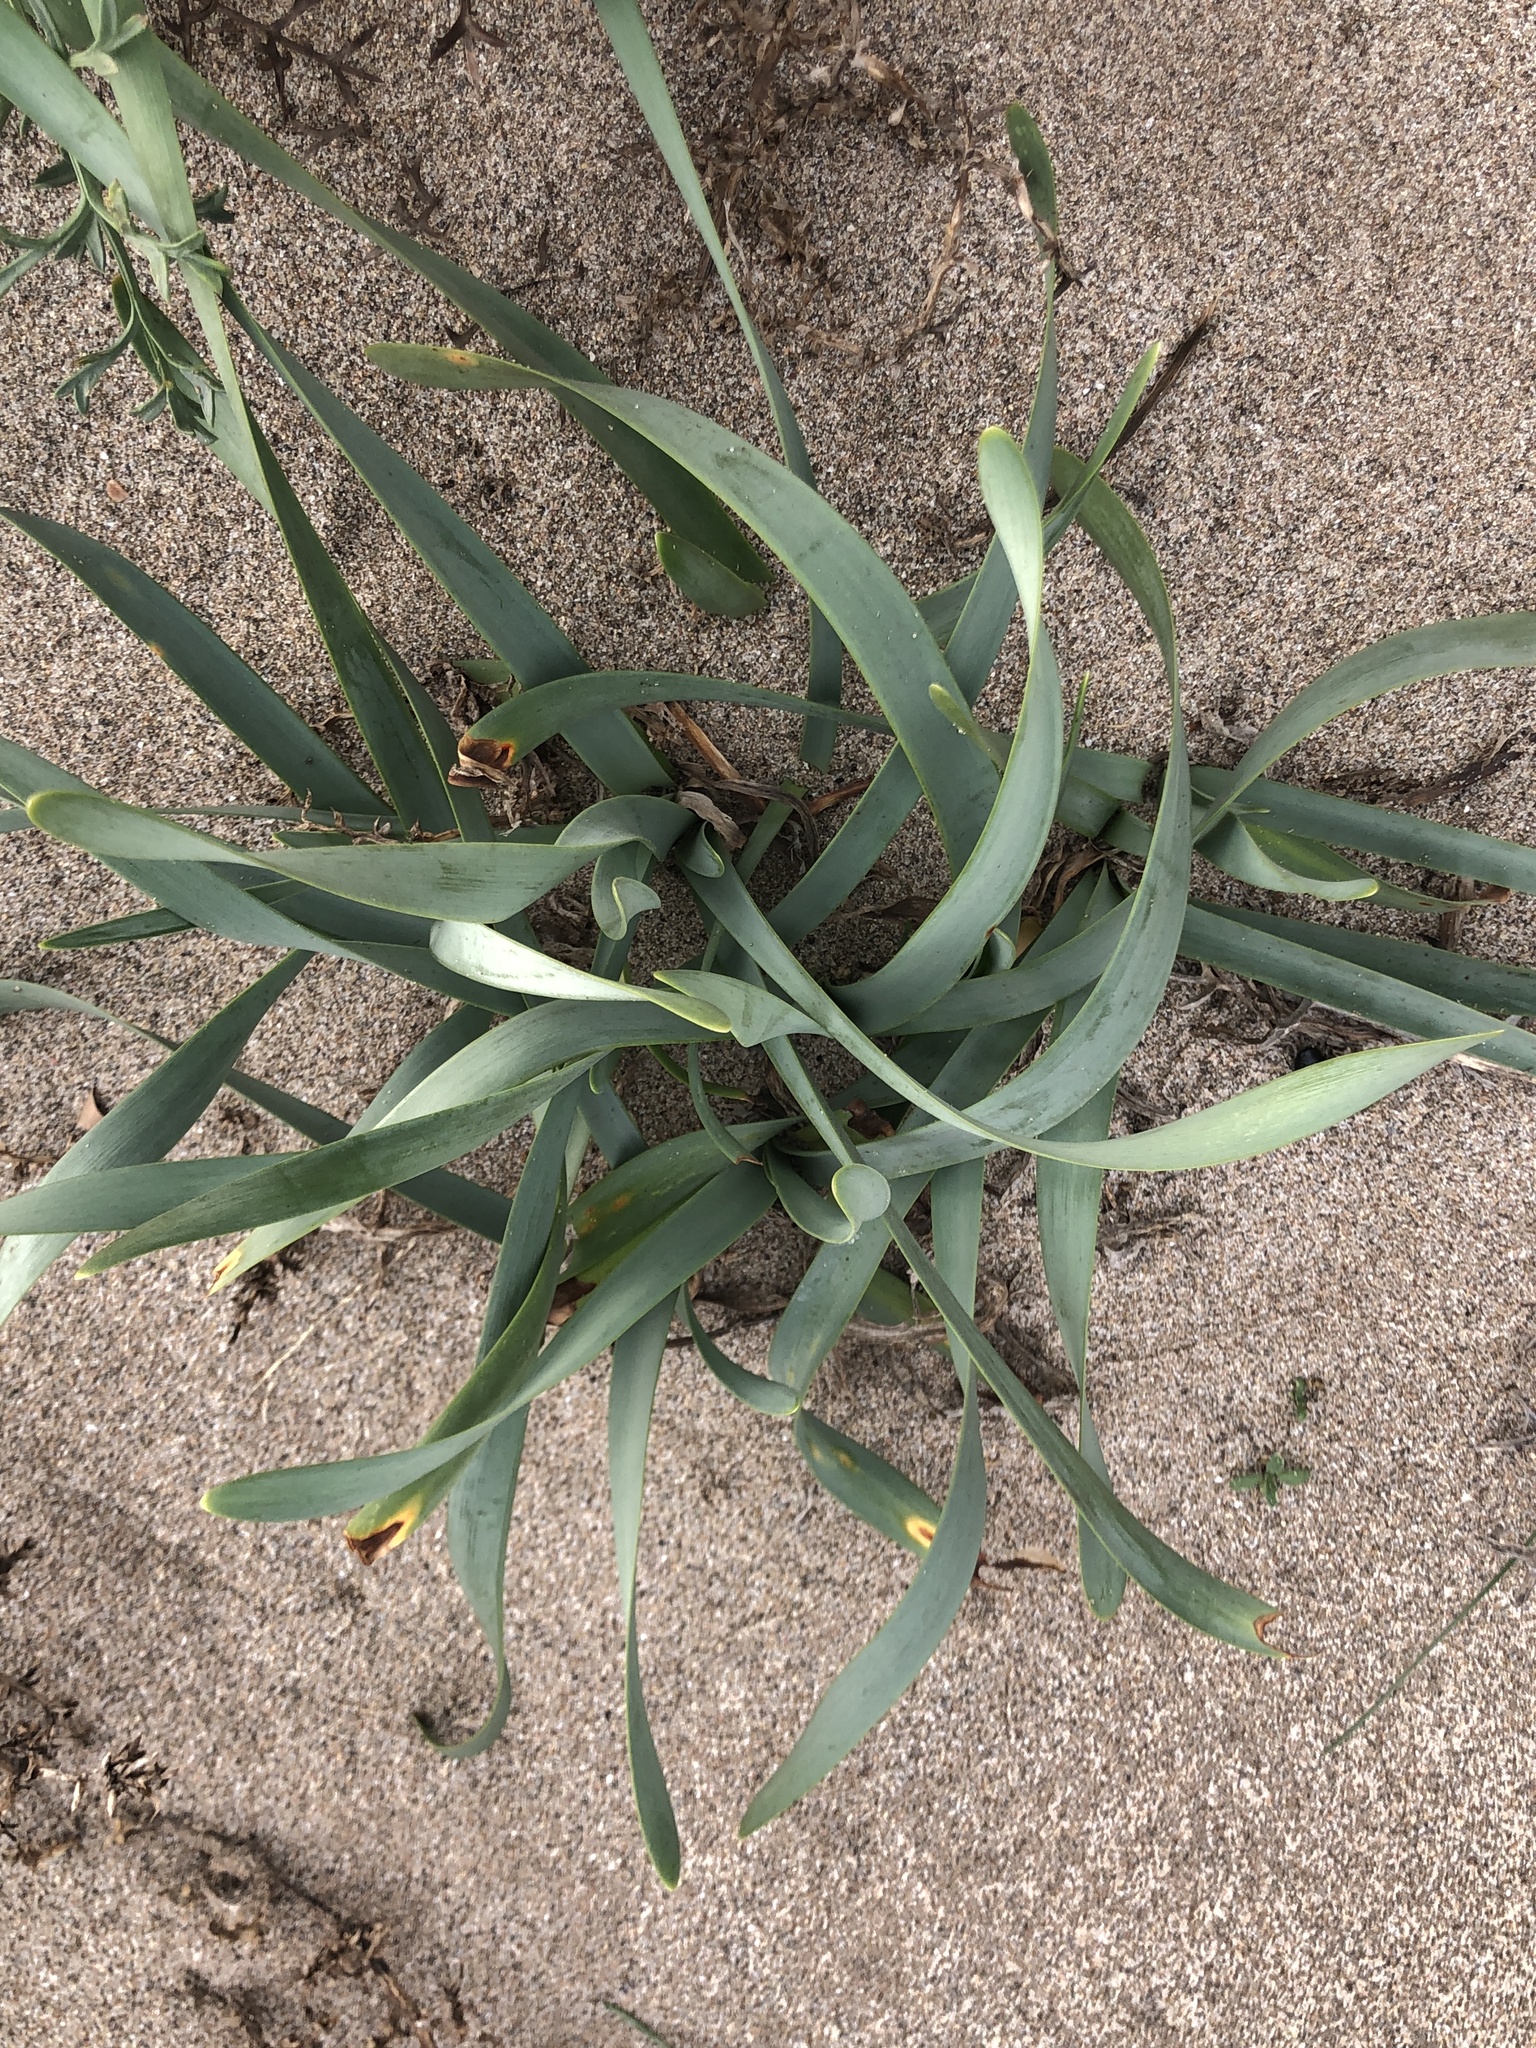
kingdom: Plantae
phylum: Tracheophyta
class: Liliopsida
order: Asparagales
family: Amaryllidaceae
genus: Pancratium
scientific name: Pancratium maritimum
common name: Sea-daffodil
